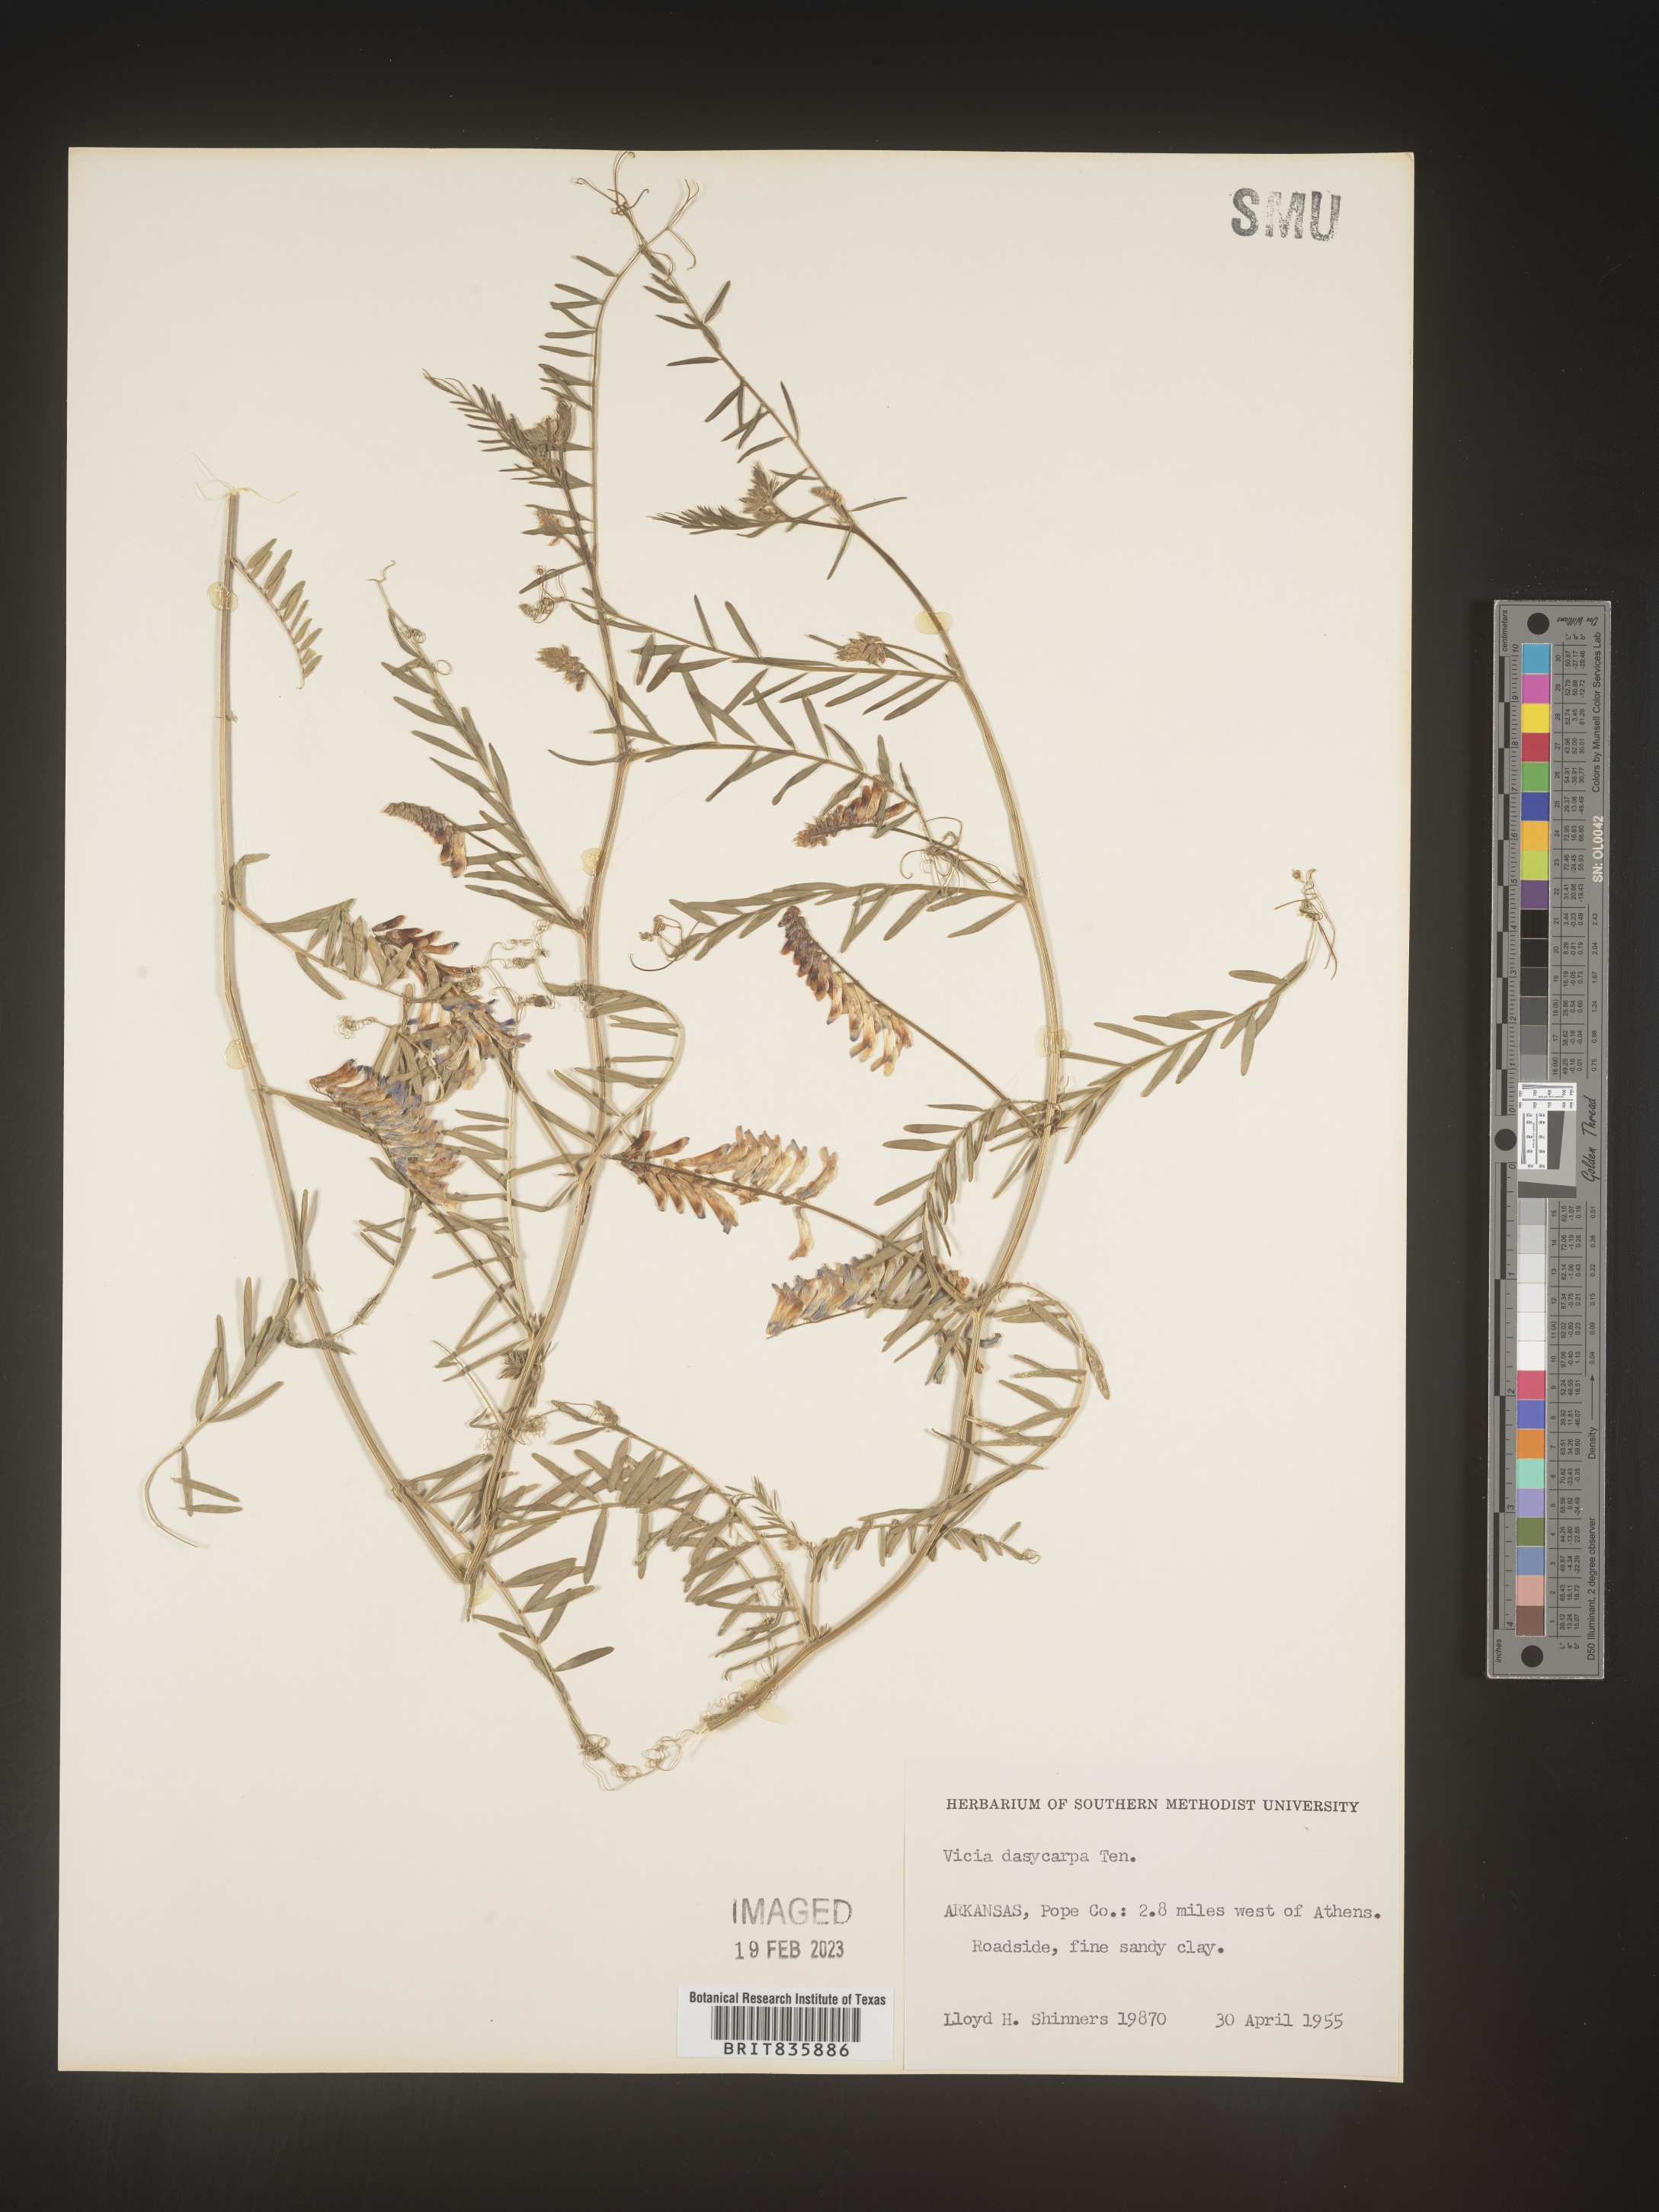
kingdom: Plantae
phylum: Tracheophyta
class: Magnoliopsida
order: Fabales
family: Fabaceae
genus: Vicia
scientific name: Vicia villosa
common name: Fodder vetch
